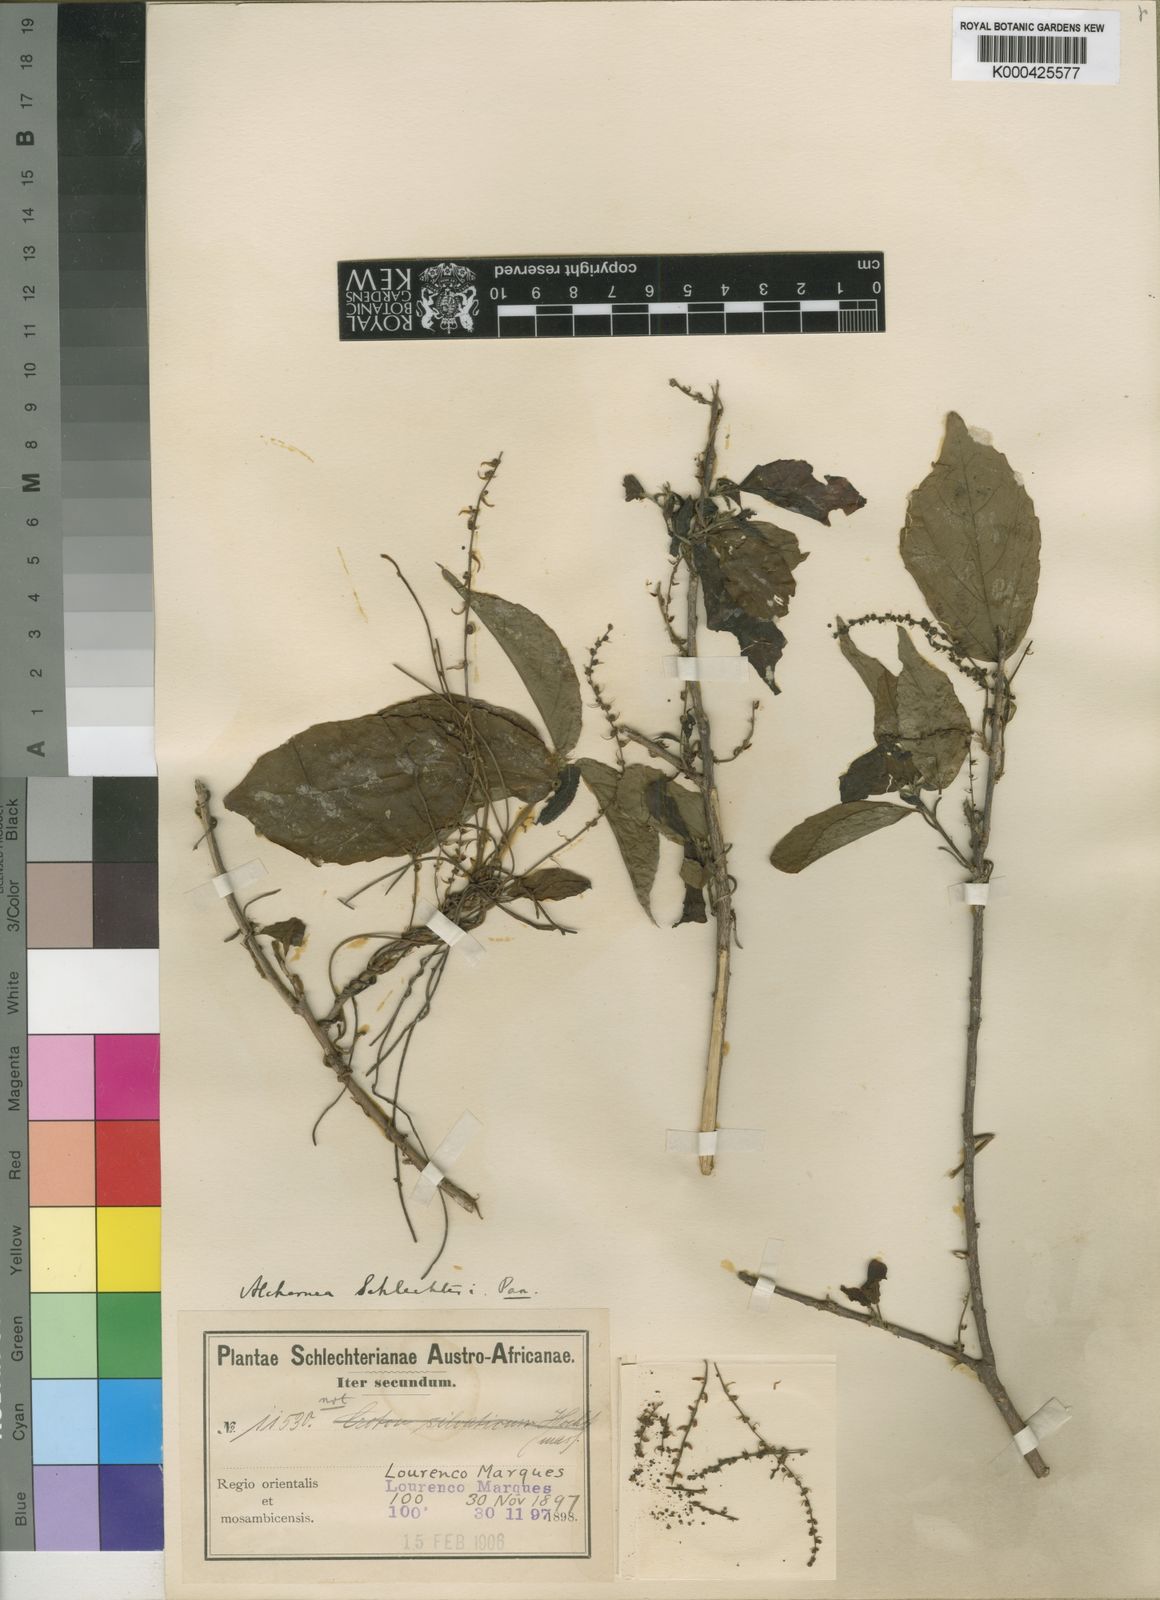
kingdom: Plantae
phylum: Tracheophyta
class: Magnoliopsida
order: Malpighiales
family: Euphorbiaceae
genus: Alchornea
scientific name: Alchornea laxiflora
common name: Lowveld bead-string
